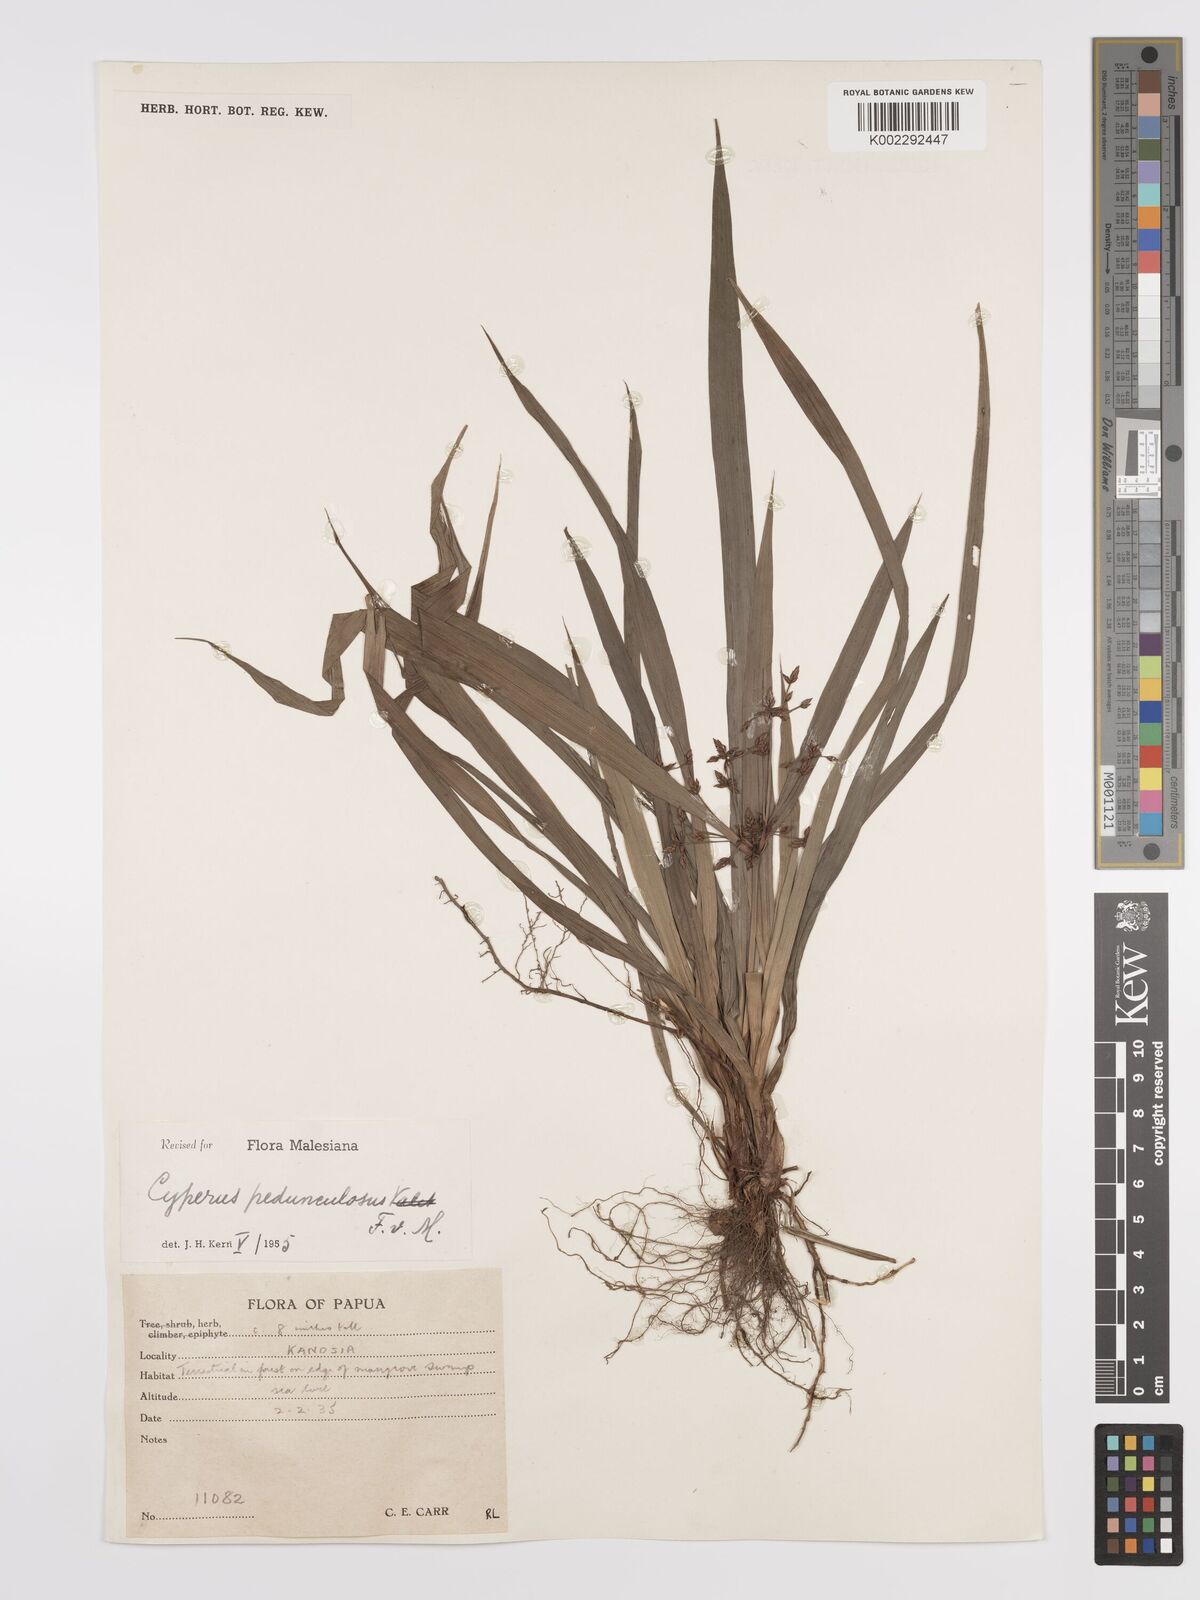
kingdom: Plantae
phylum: Tracheophyta
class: Liliopsida
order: Poales
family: Cyperaceae
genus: Cyperus
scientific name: Cyperus pedunculosus
